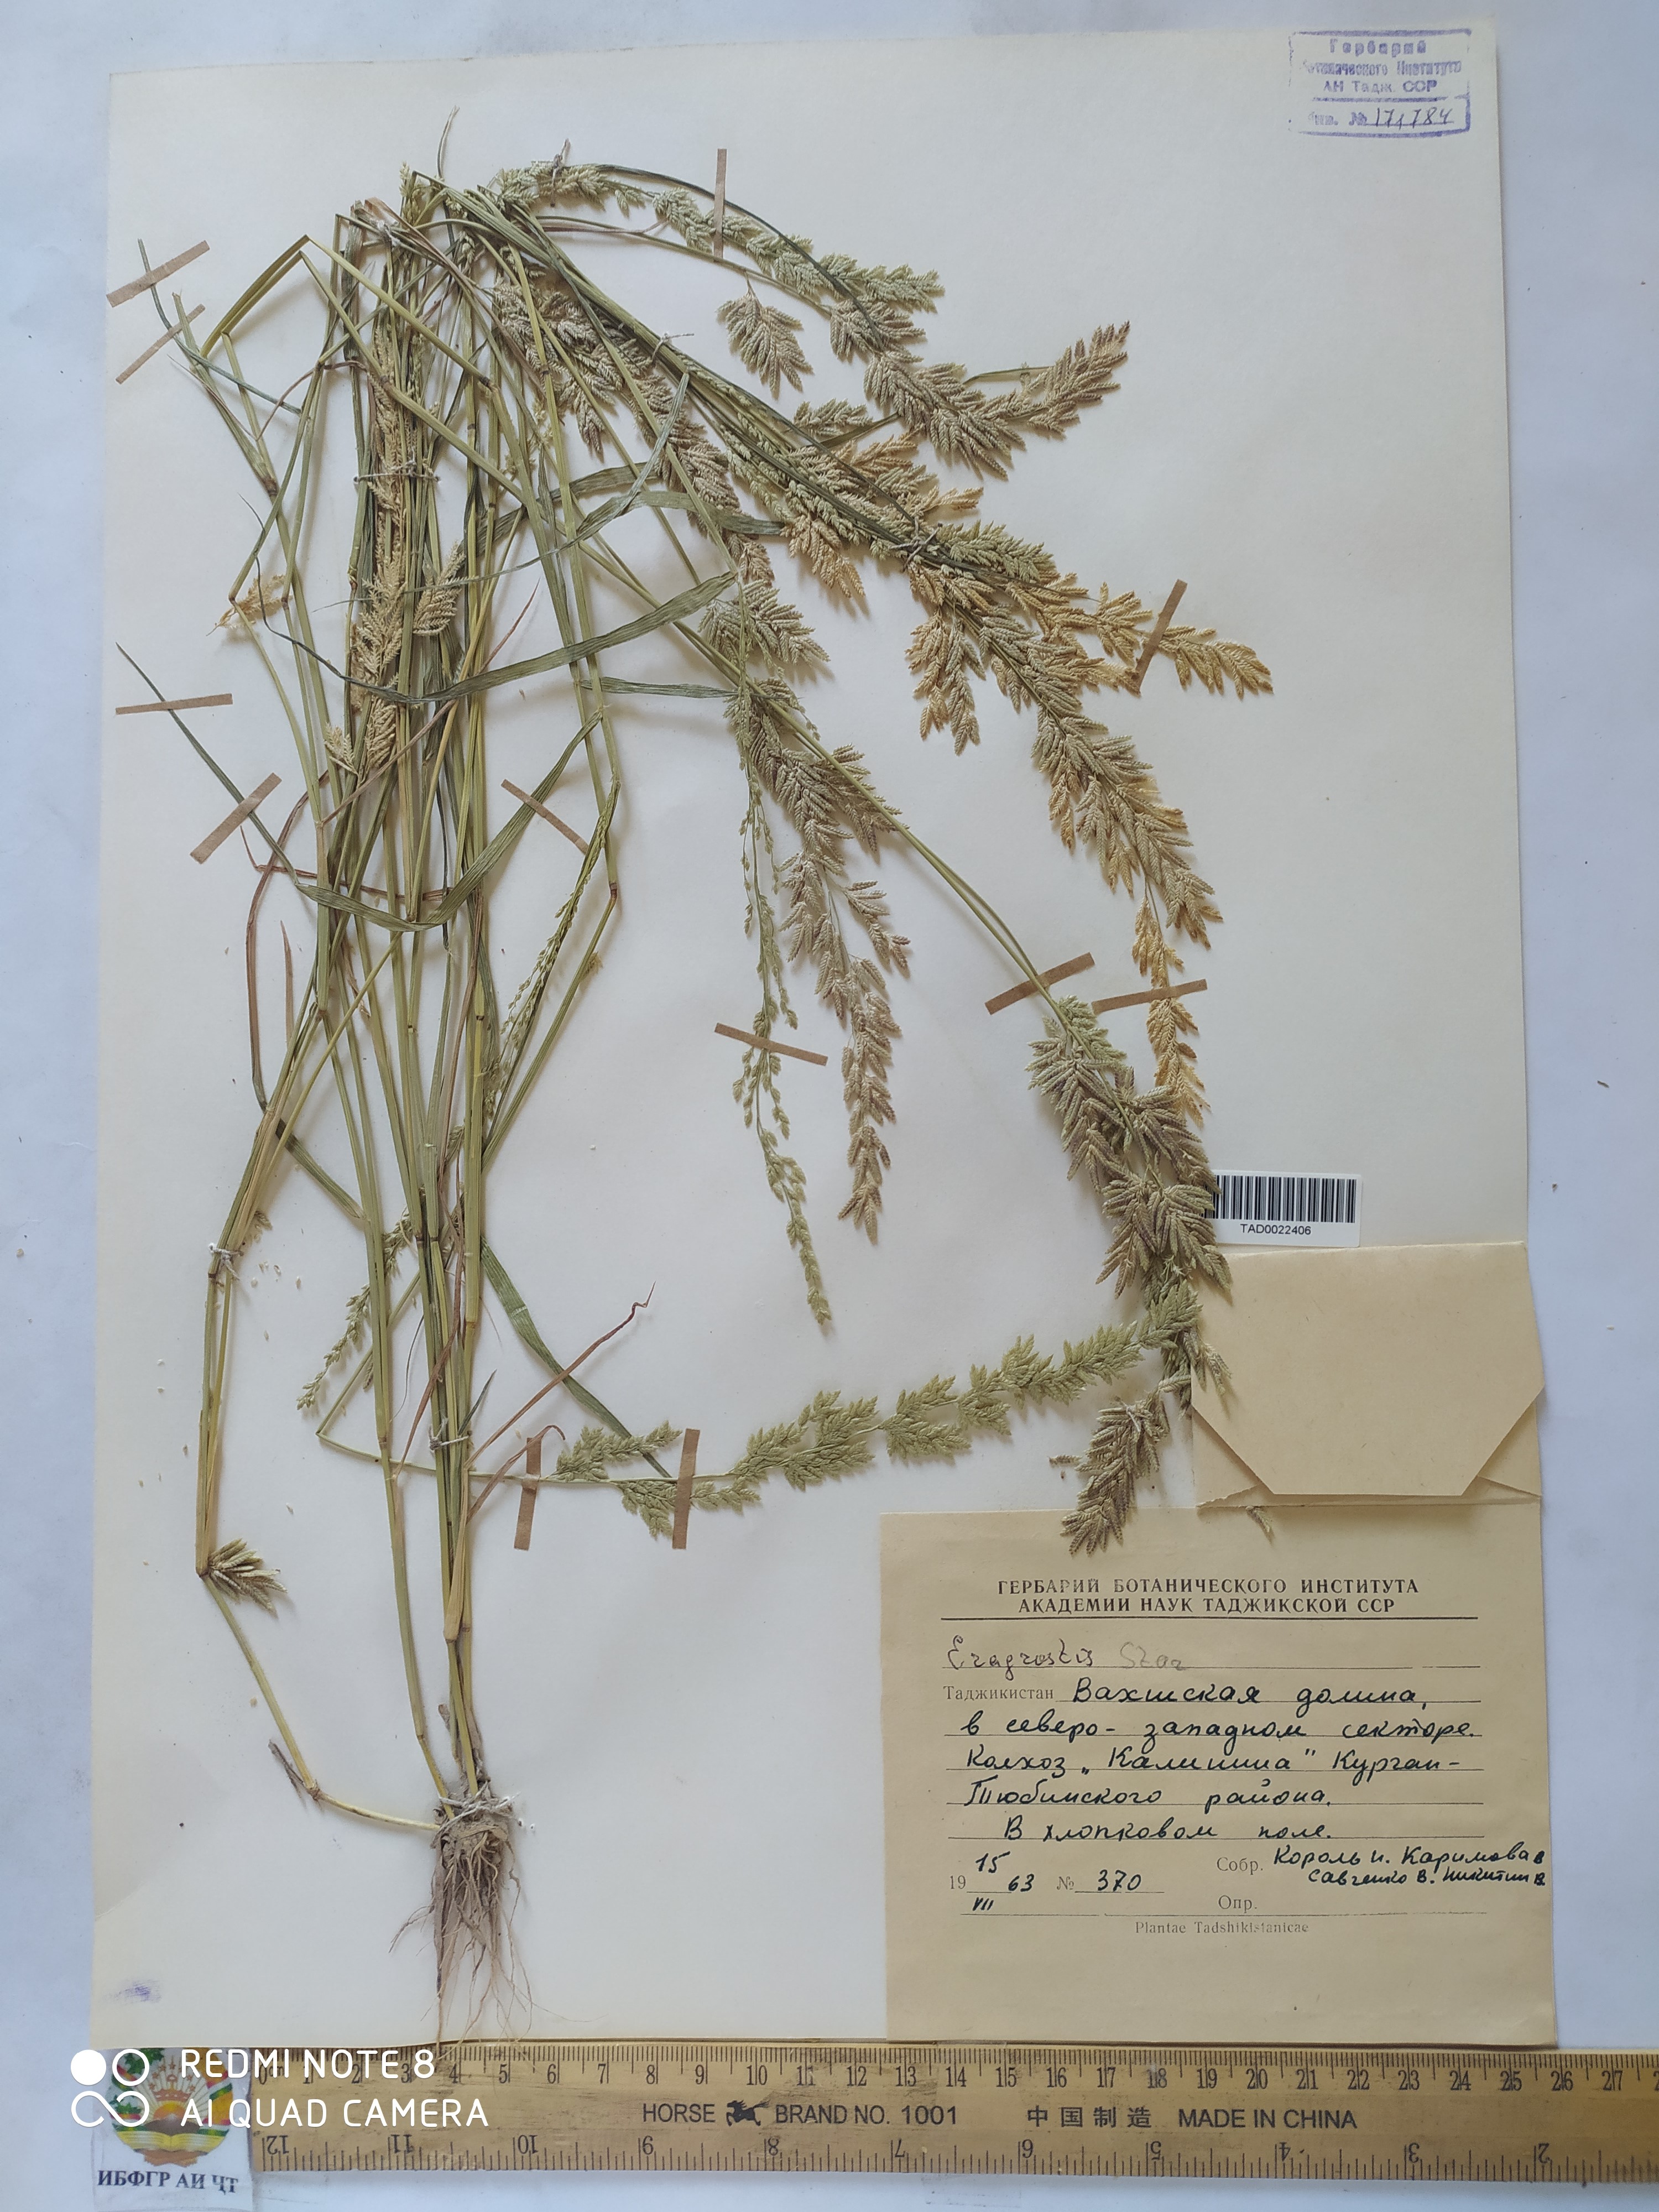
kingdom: Plantae
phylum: Tracheophyta
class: Liliopsida
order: Poales
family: Poaceae
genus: Eragrostis
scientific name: Eragrostis cilianensis
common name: Stinkgrass
